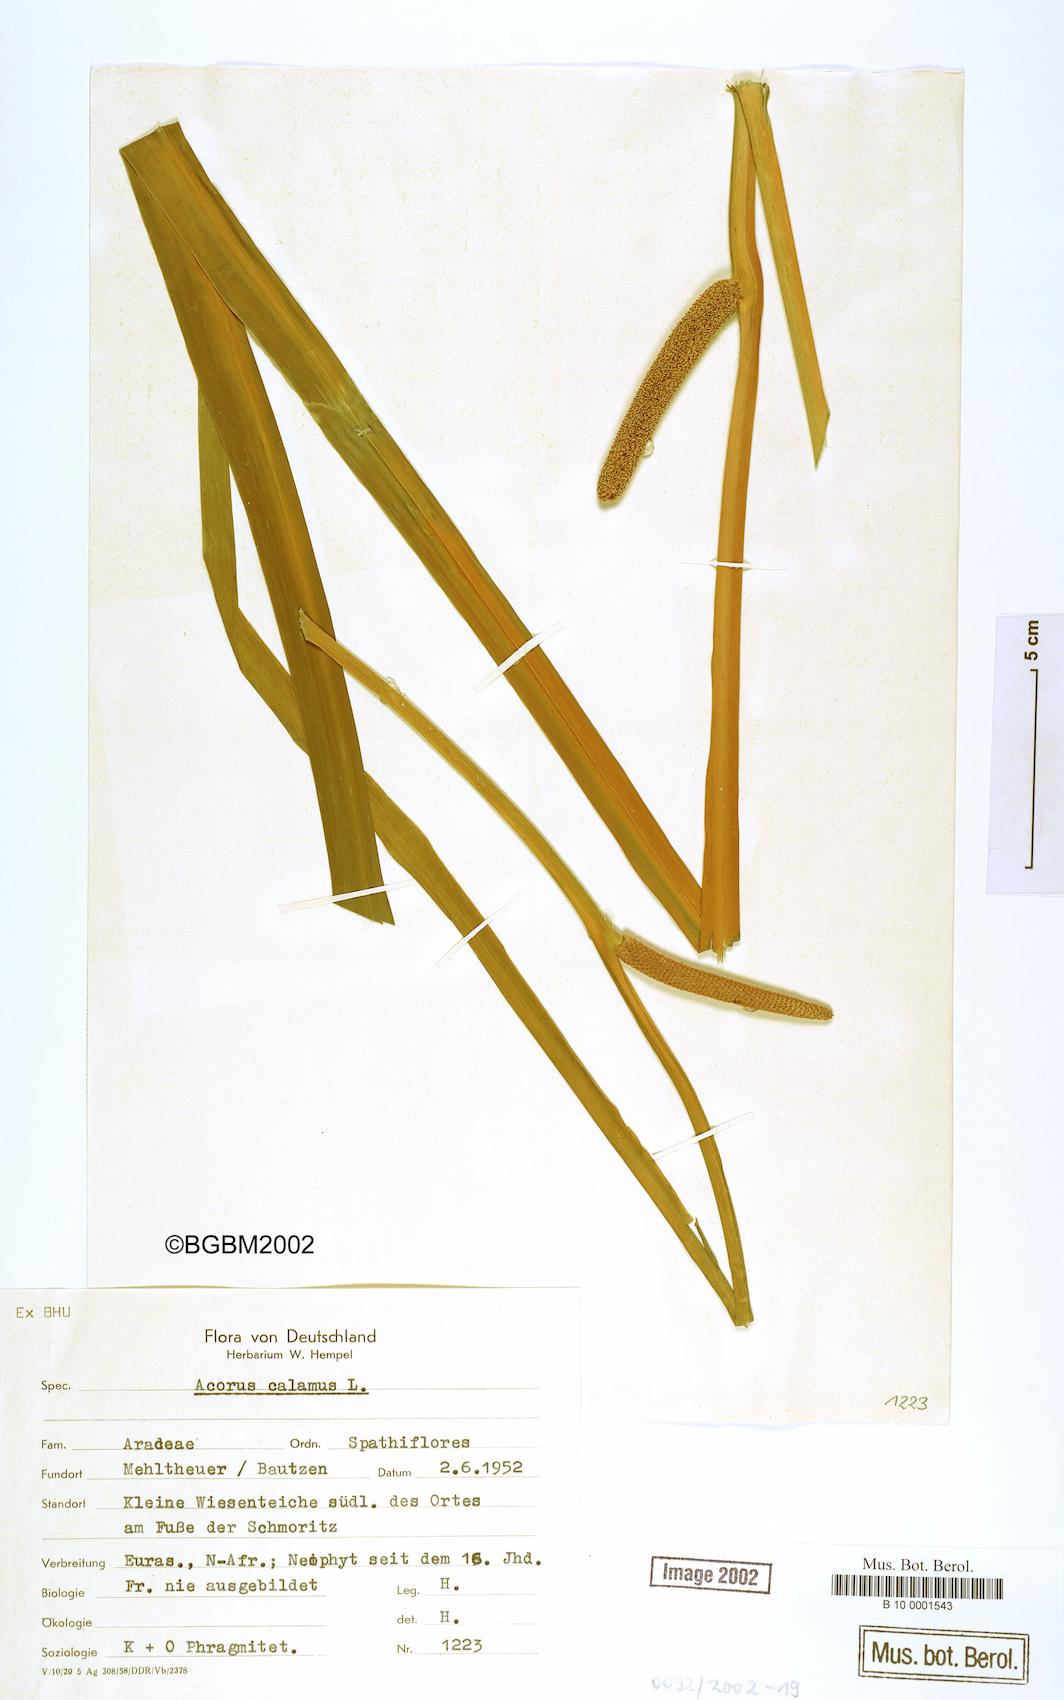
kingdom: Plantae
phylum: Tracheophyta
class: Liliopsida
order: Acorales
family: Acoraceae
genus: Acorus
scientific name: Acorus calamus
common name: Sweet-flag
